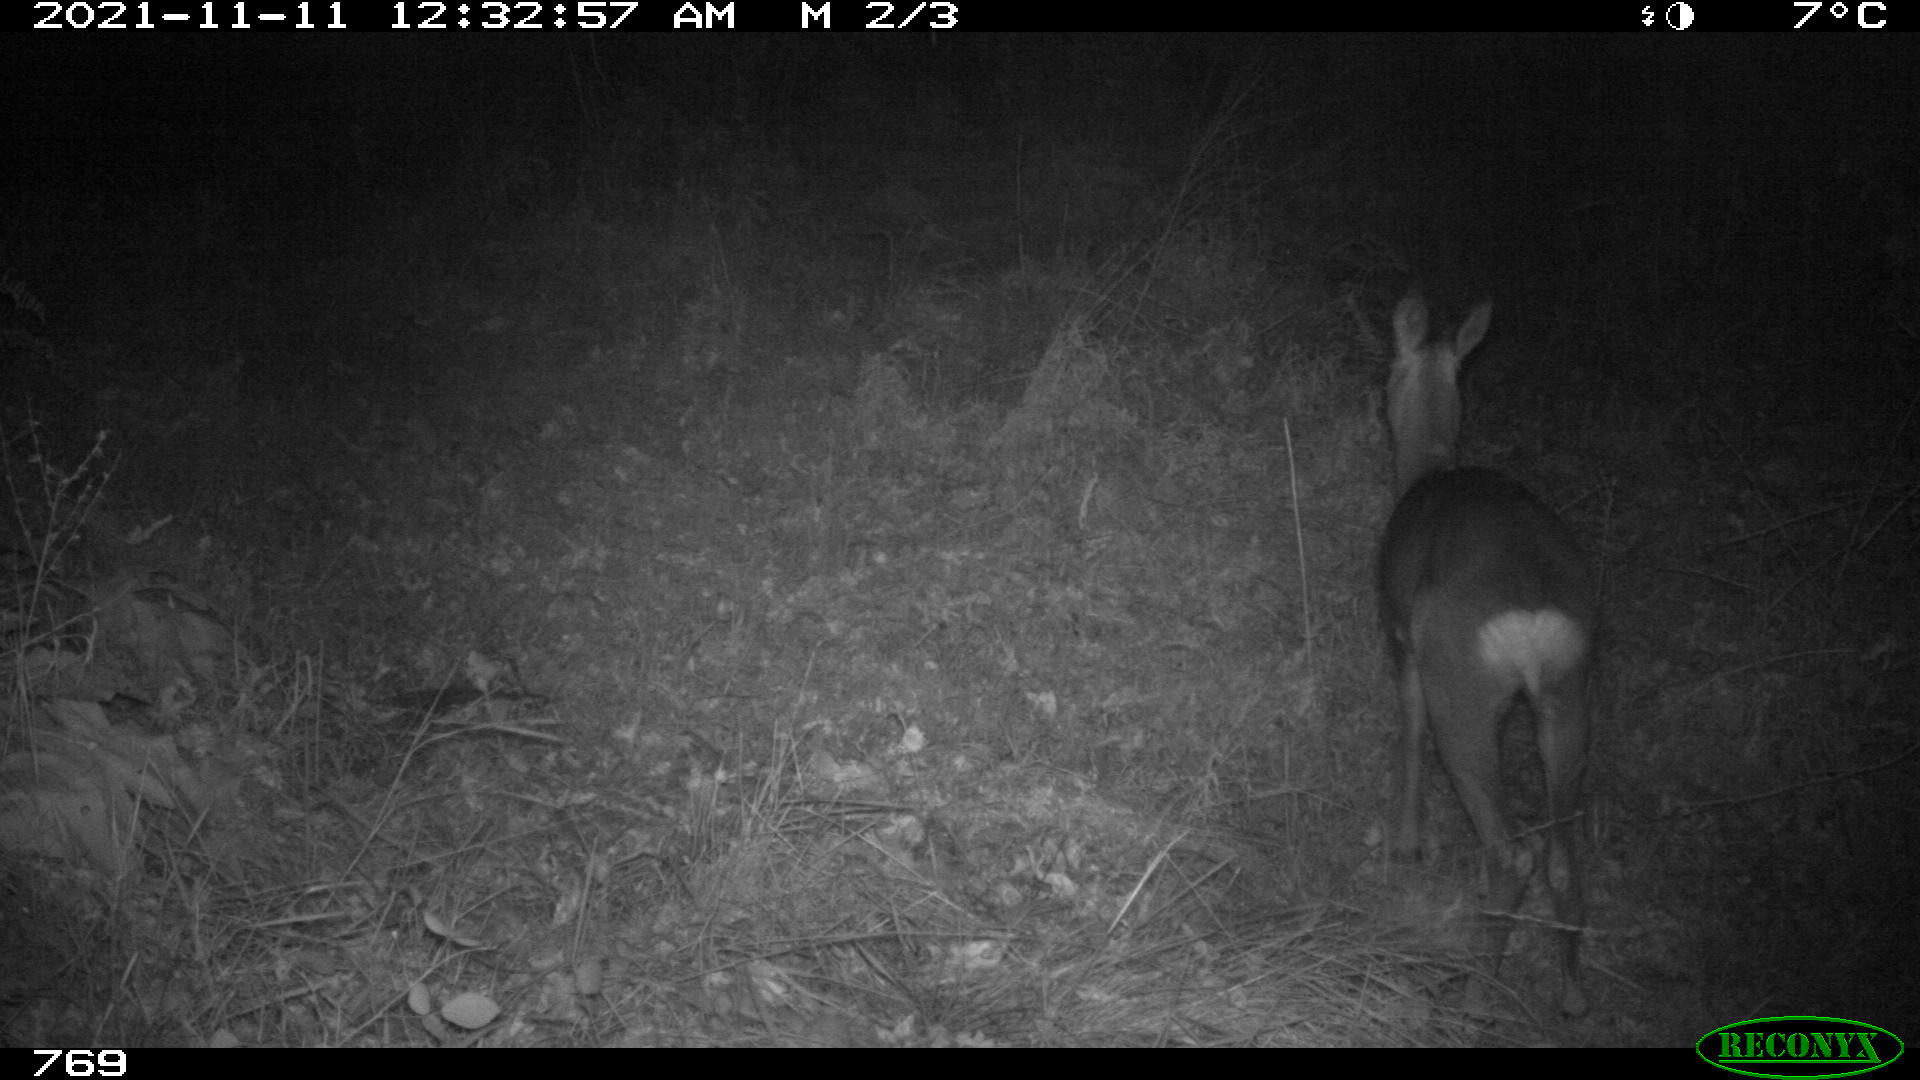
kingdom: Animalia
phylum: Chordata
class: Mammalia
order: Artiodactyla
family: Cervidae
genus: Capreolus
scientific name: Capreolus capreolus
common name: Western roe deer
